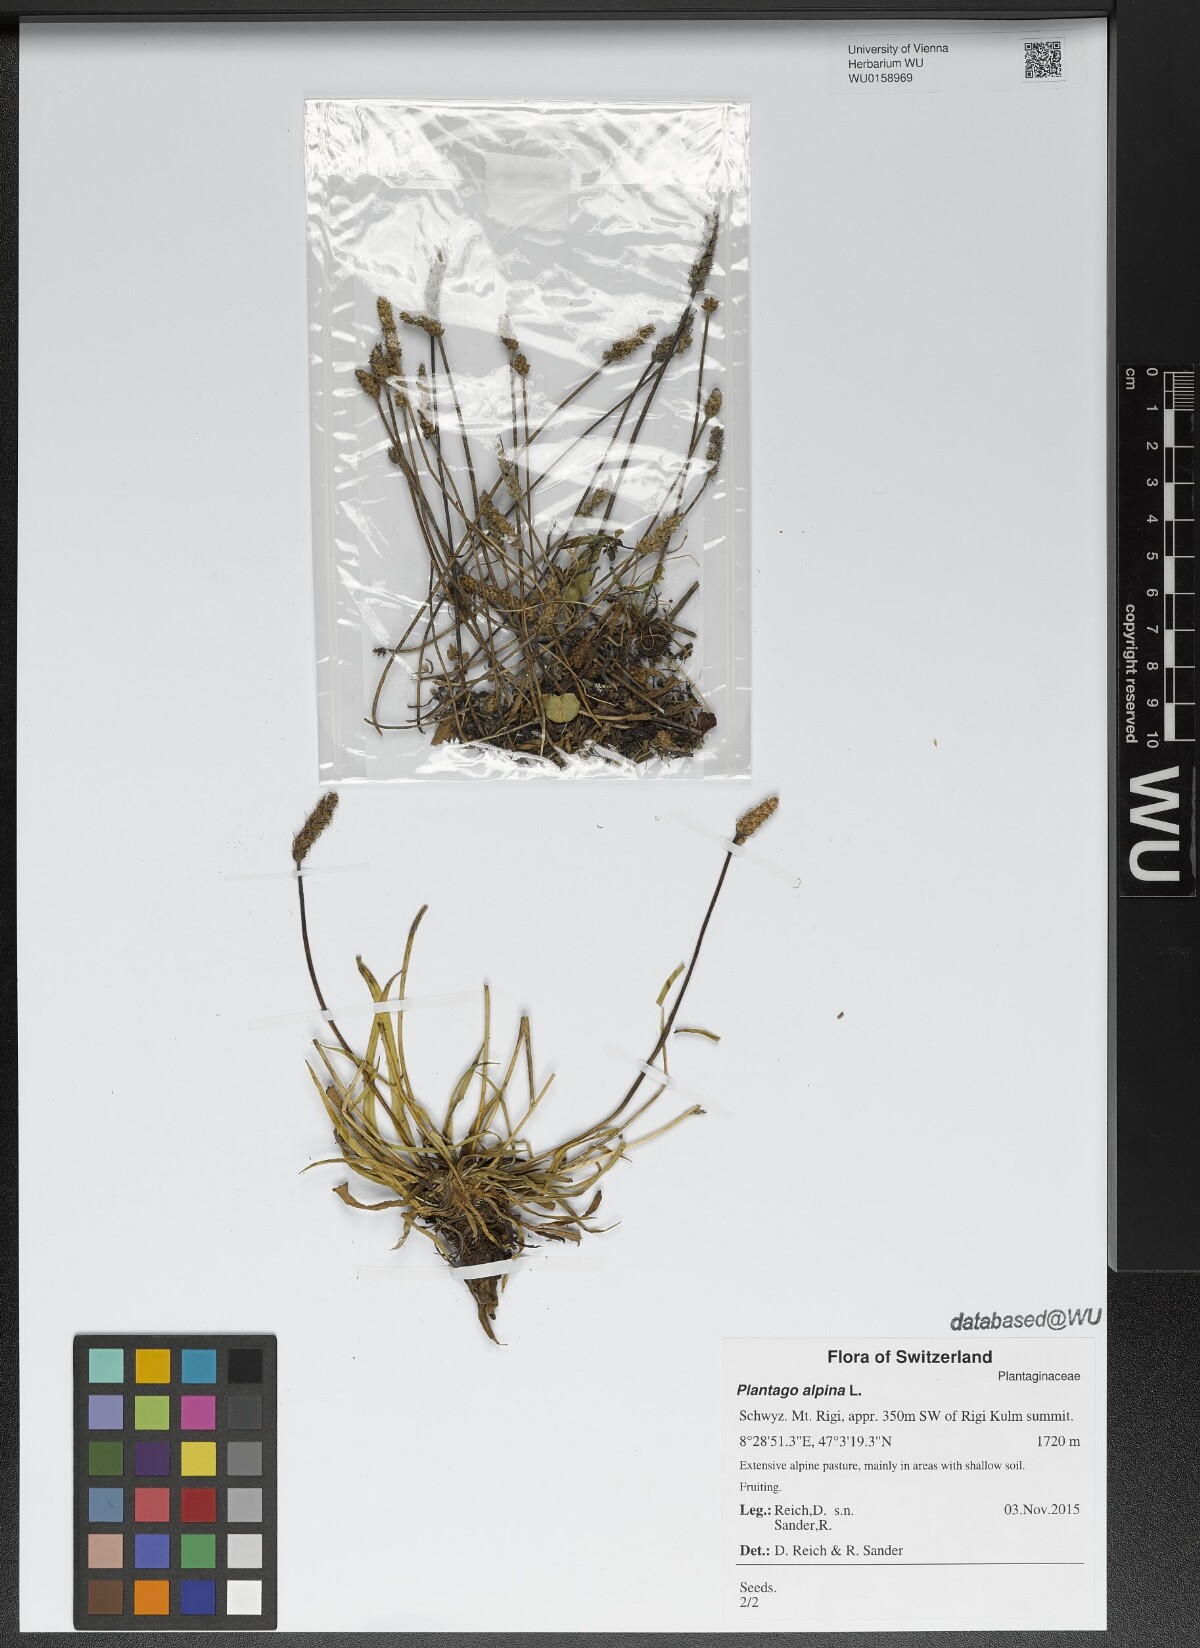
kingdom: Plantae
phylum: Tracheophyta
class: Magnoliopsida
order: Lamiales
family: Plantaginaceae
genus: Plantago
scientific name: Plantago alpina
